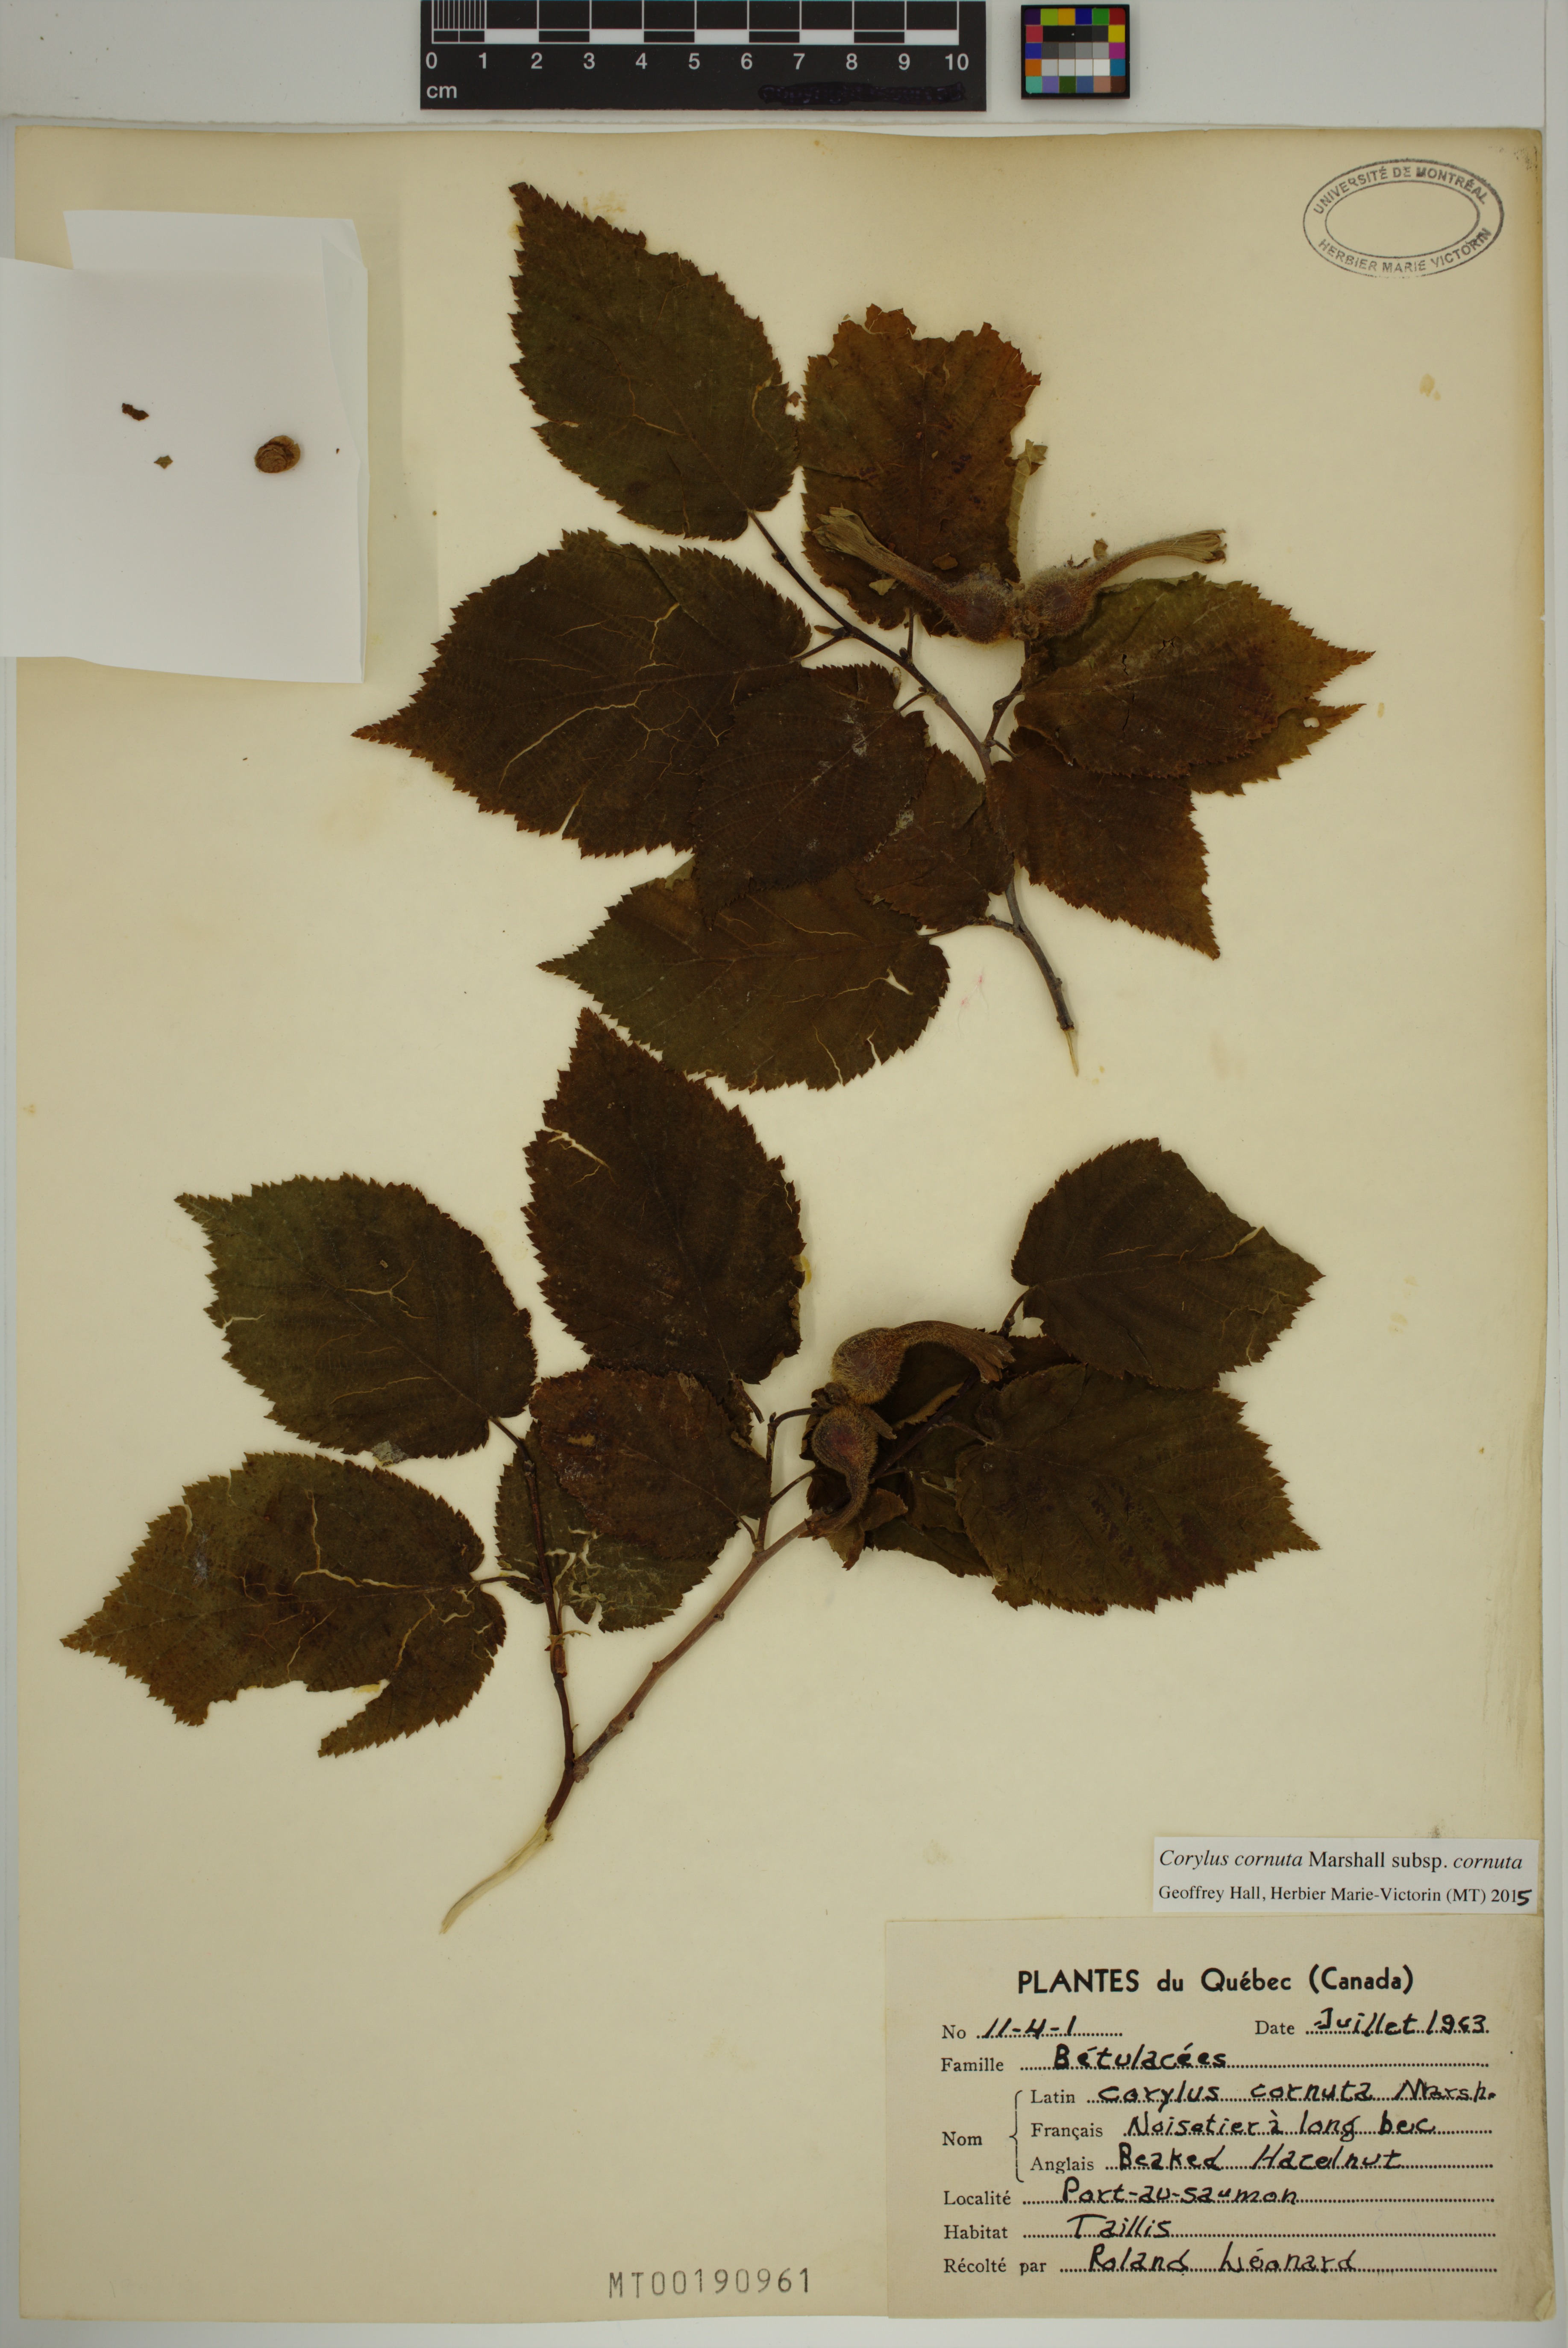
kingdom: Plantae
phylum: Tracheophyta
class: Magnoliopsida
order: Fagales
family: Betulaceae
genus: Corylus
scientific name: Corylus cornuta
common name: Beaked hazel
